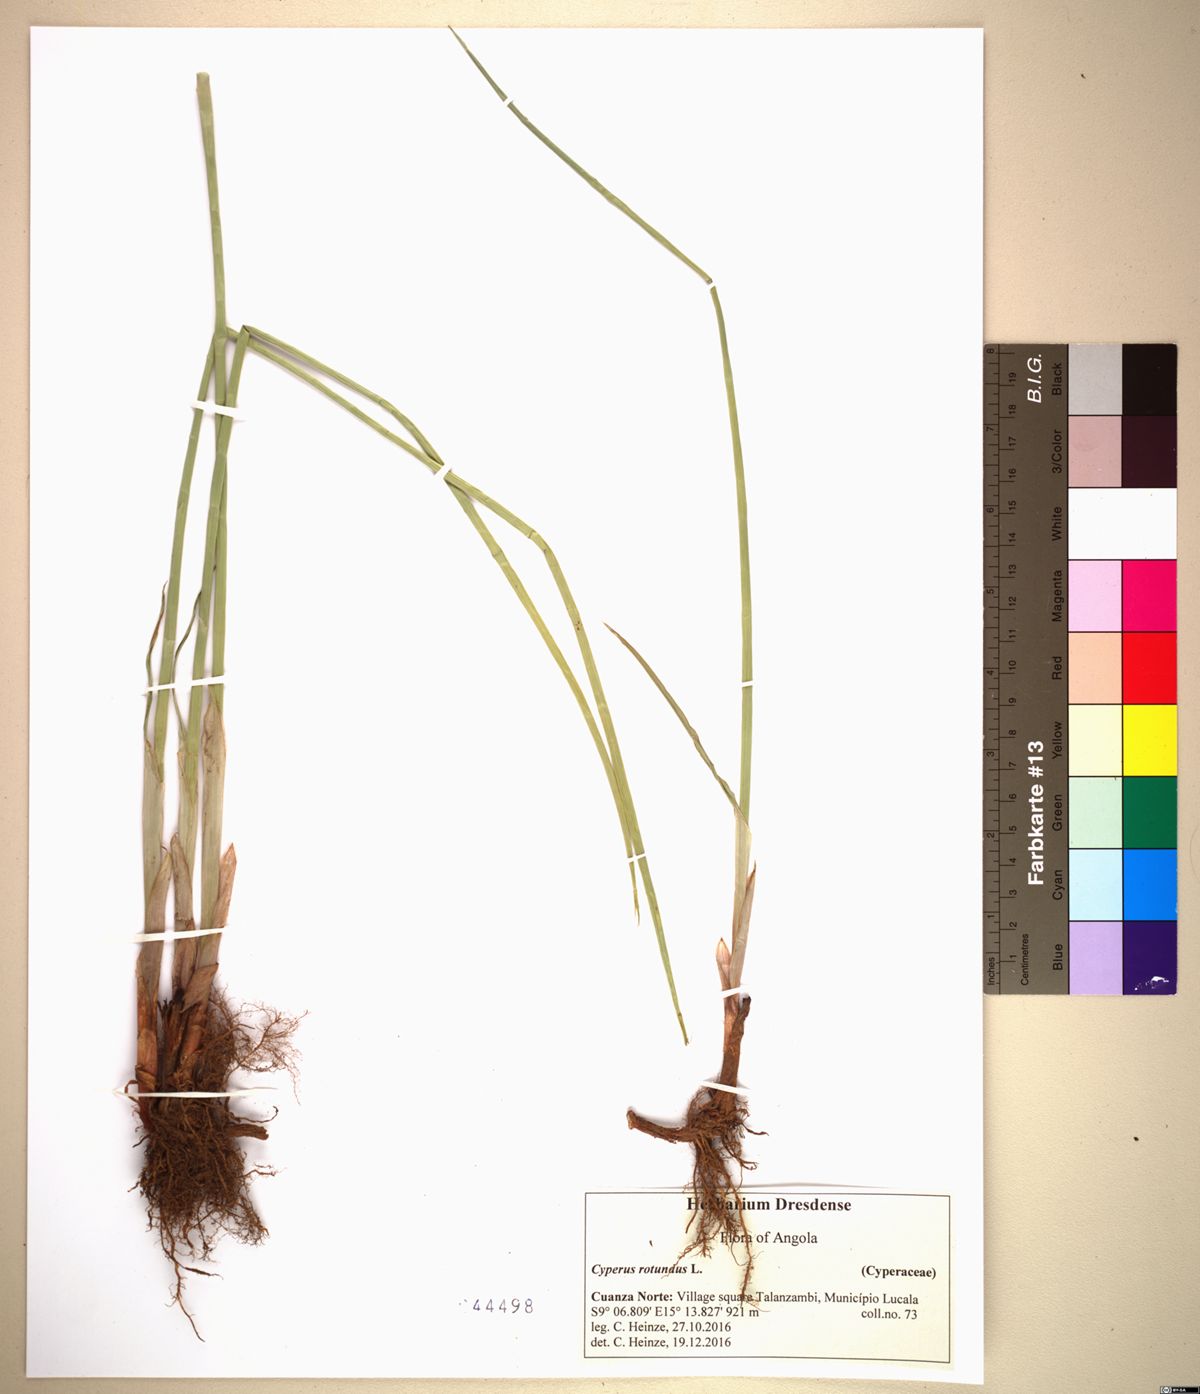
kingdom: Plantae
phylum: Tracheophyta
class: Liliopsida
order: Poales
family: Cyperaceae
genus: Cyperus
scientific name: Cyperus rotundus
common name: Nutgrass
